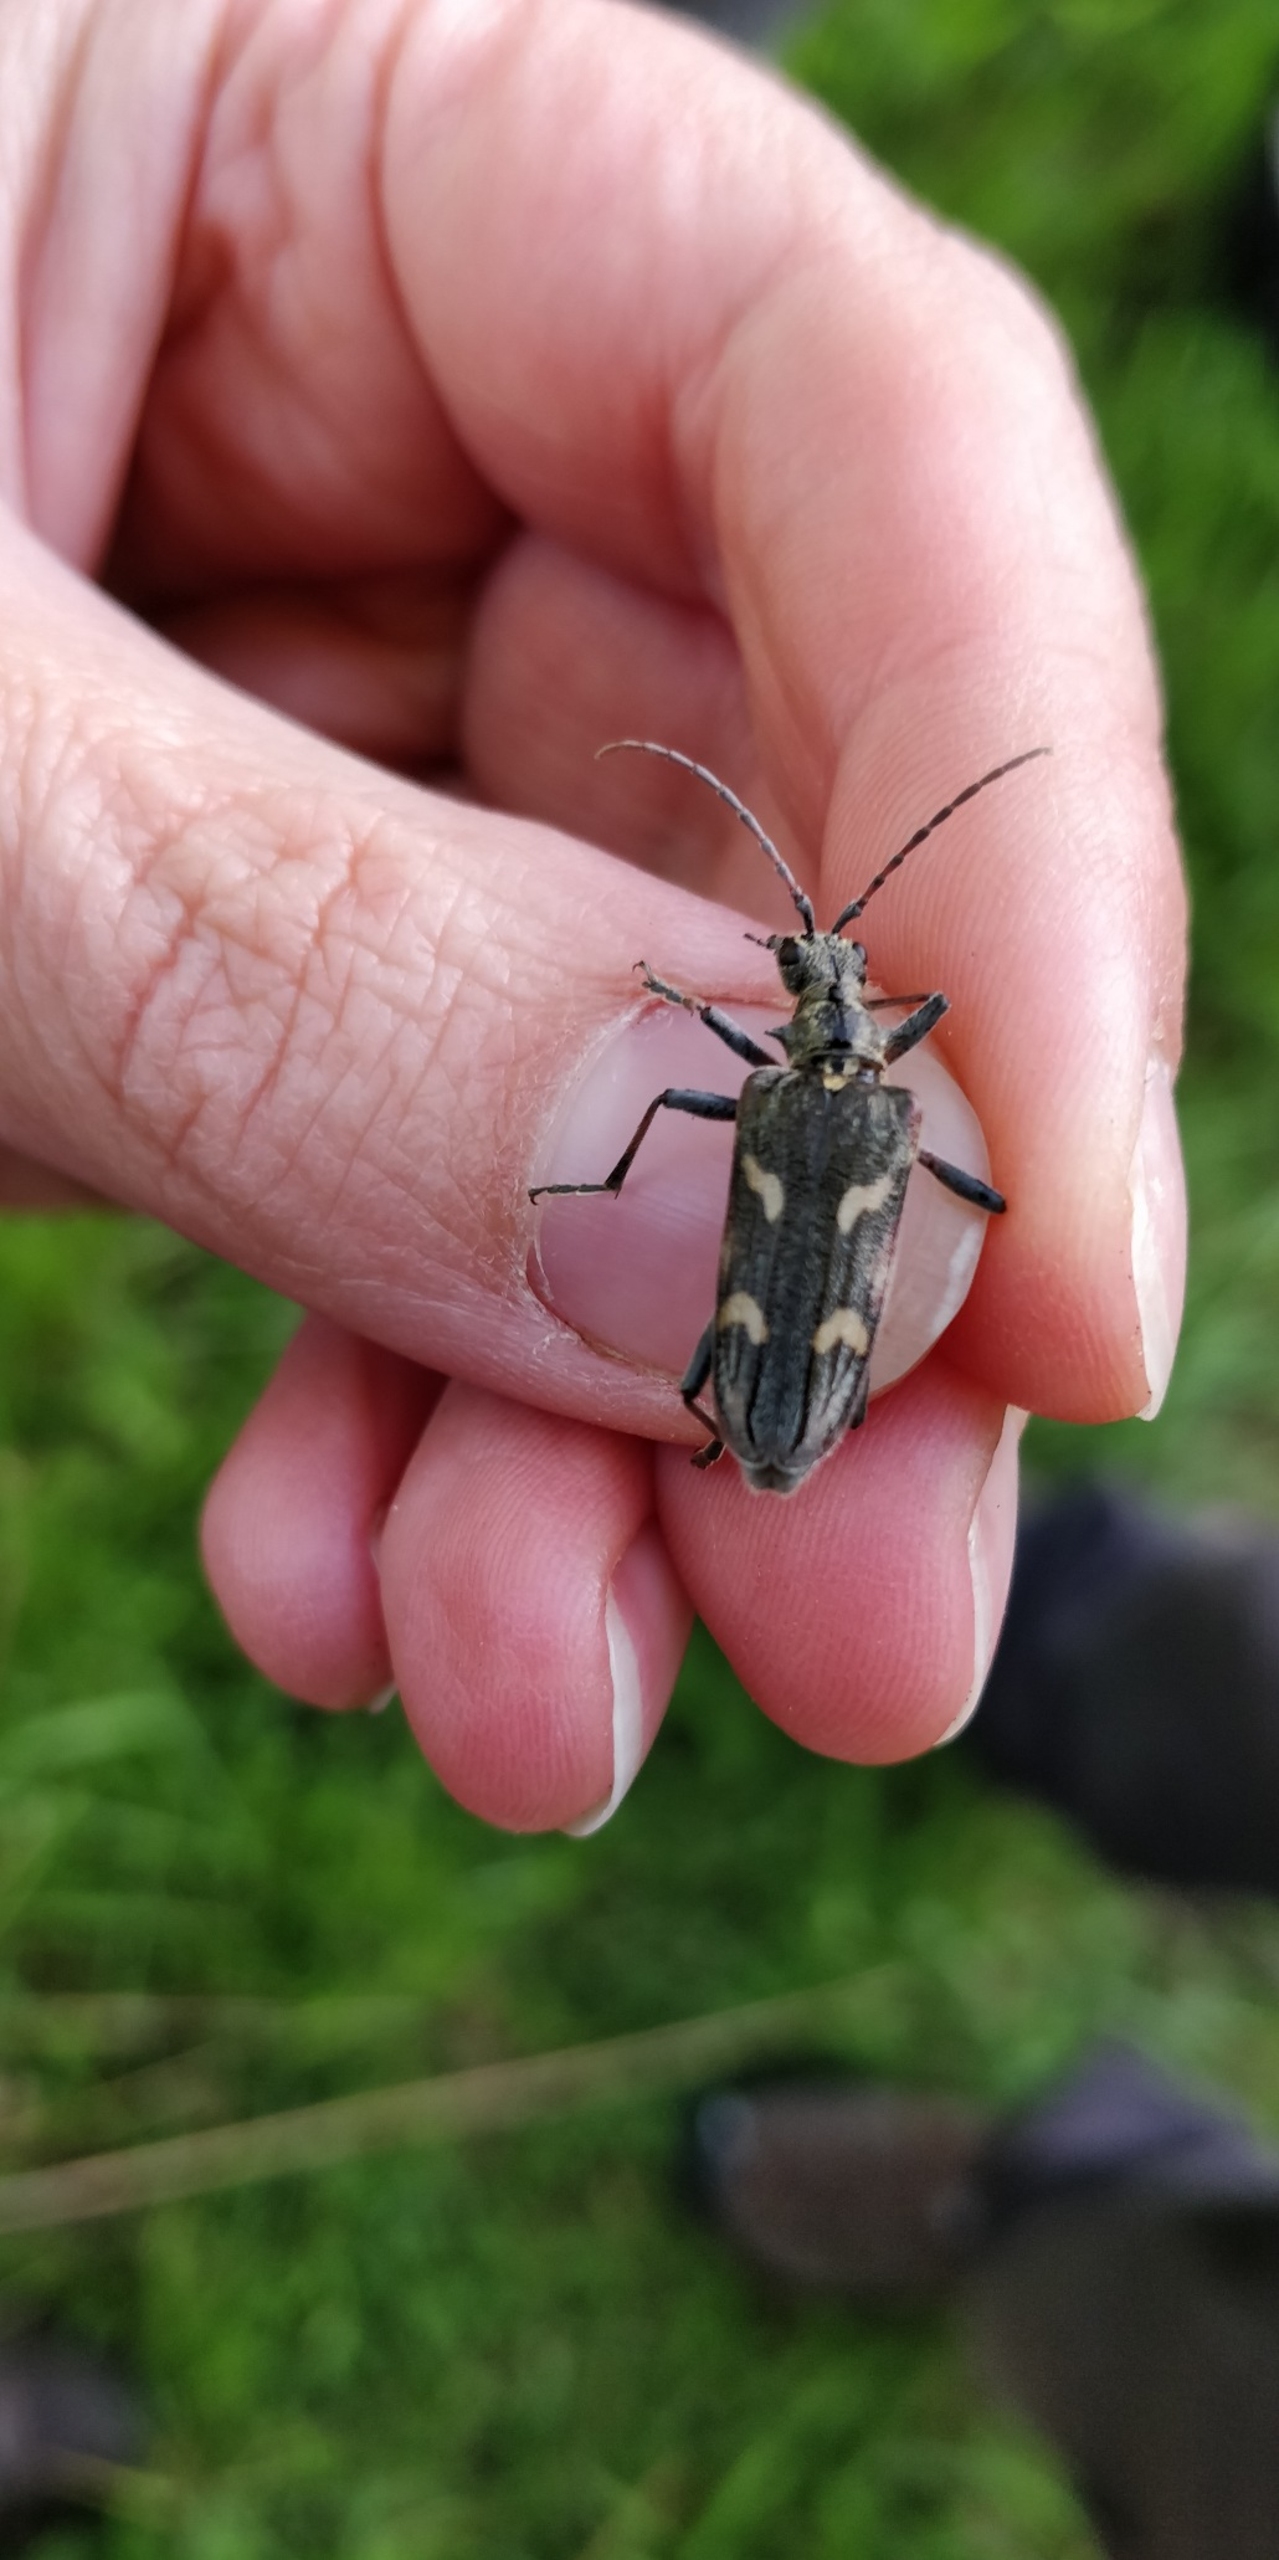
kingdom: Animalia
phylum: Arthropoda
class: Insecta
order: Coleoptera
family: Cerambycidae
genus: Rhagium
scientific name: Rhagium bifasciatum
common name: Båndet tandbuk
